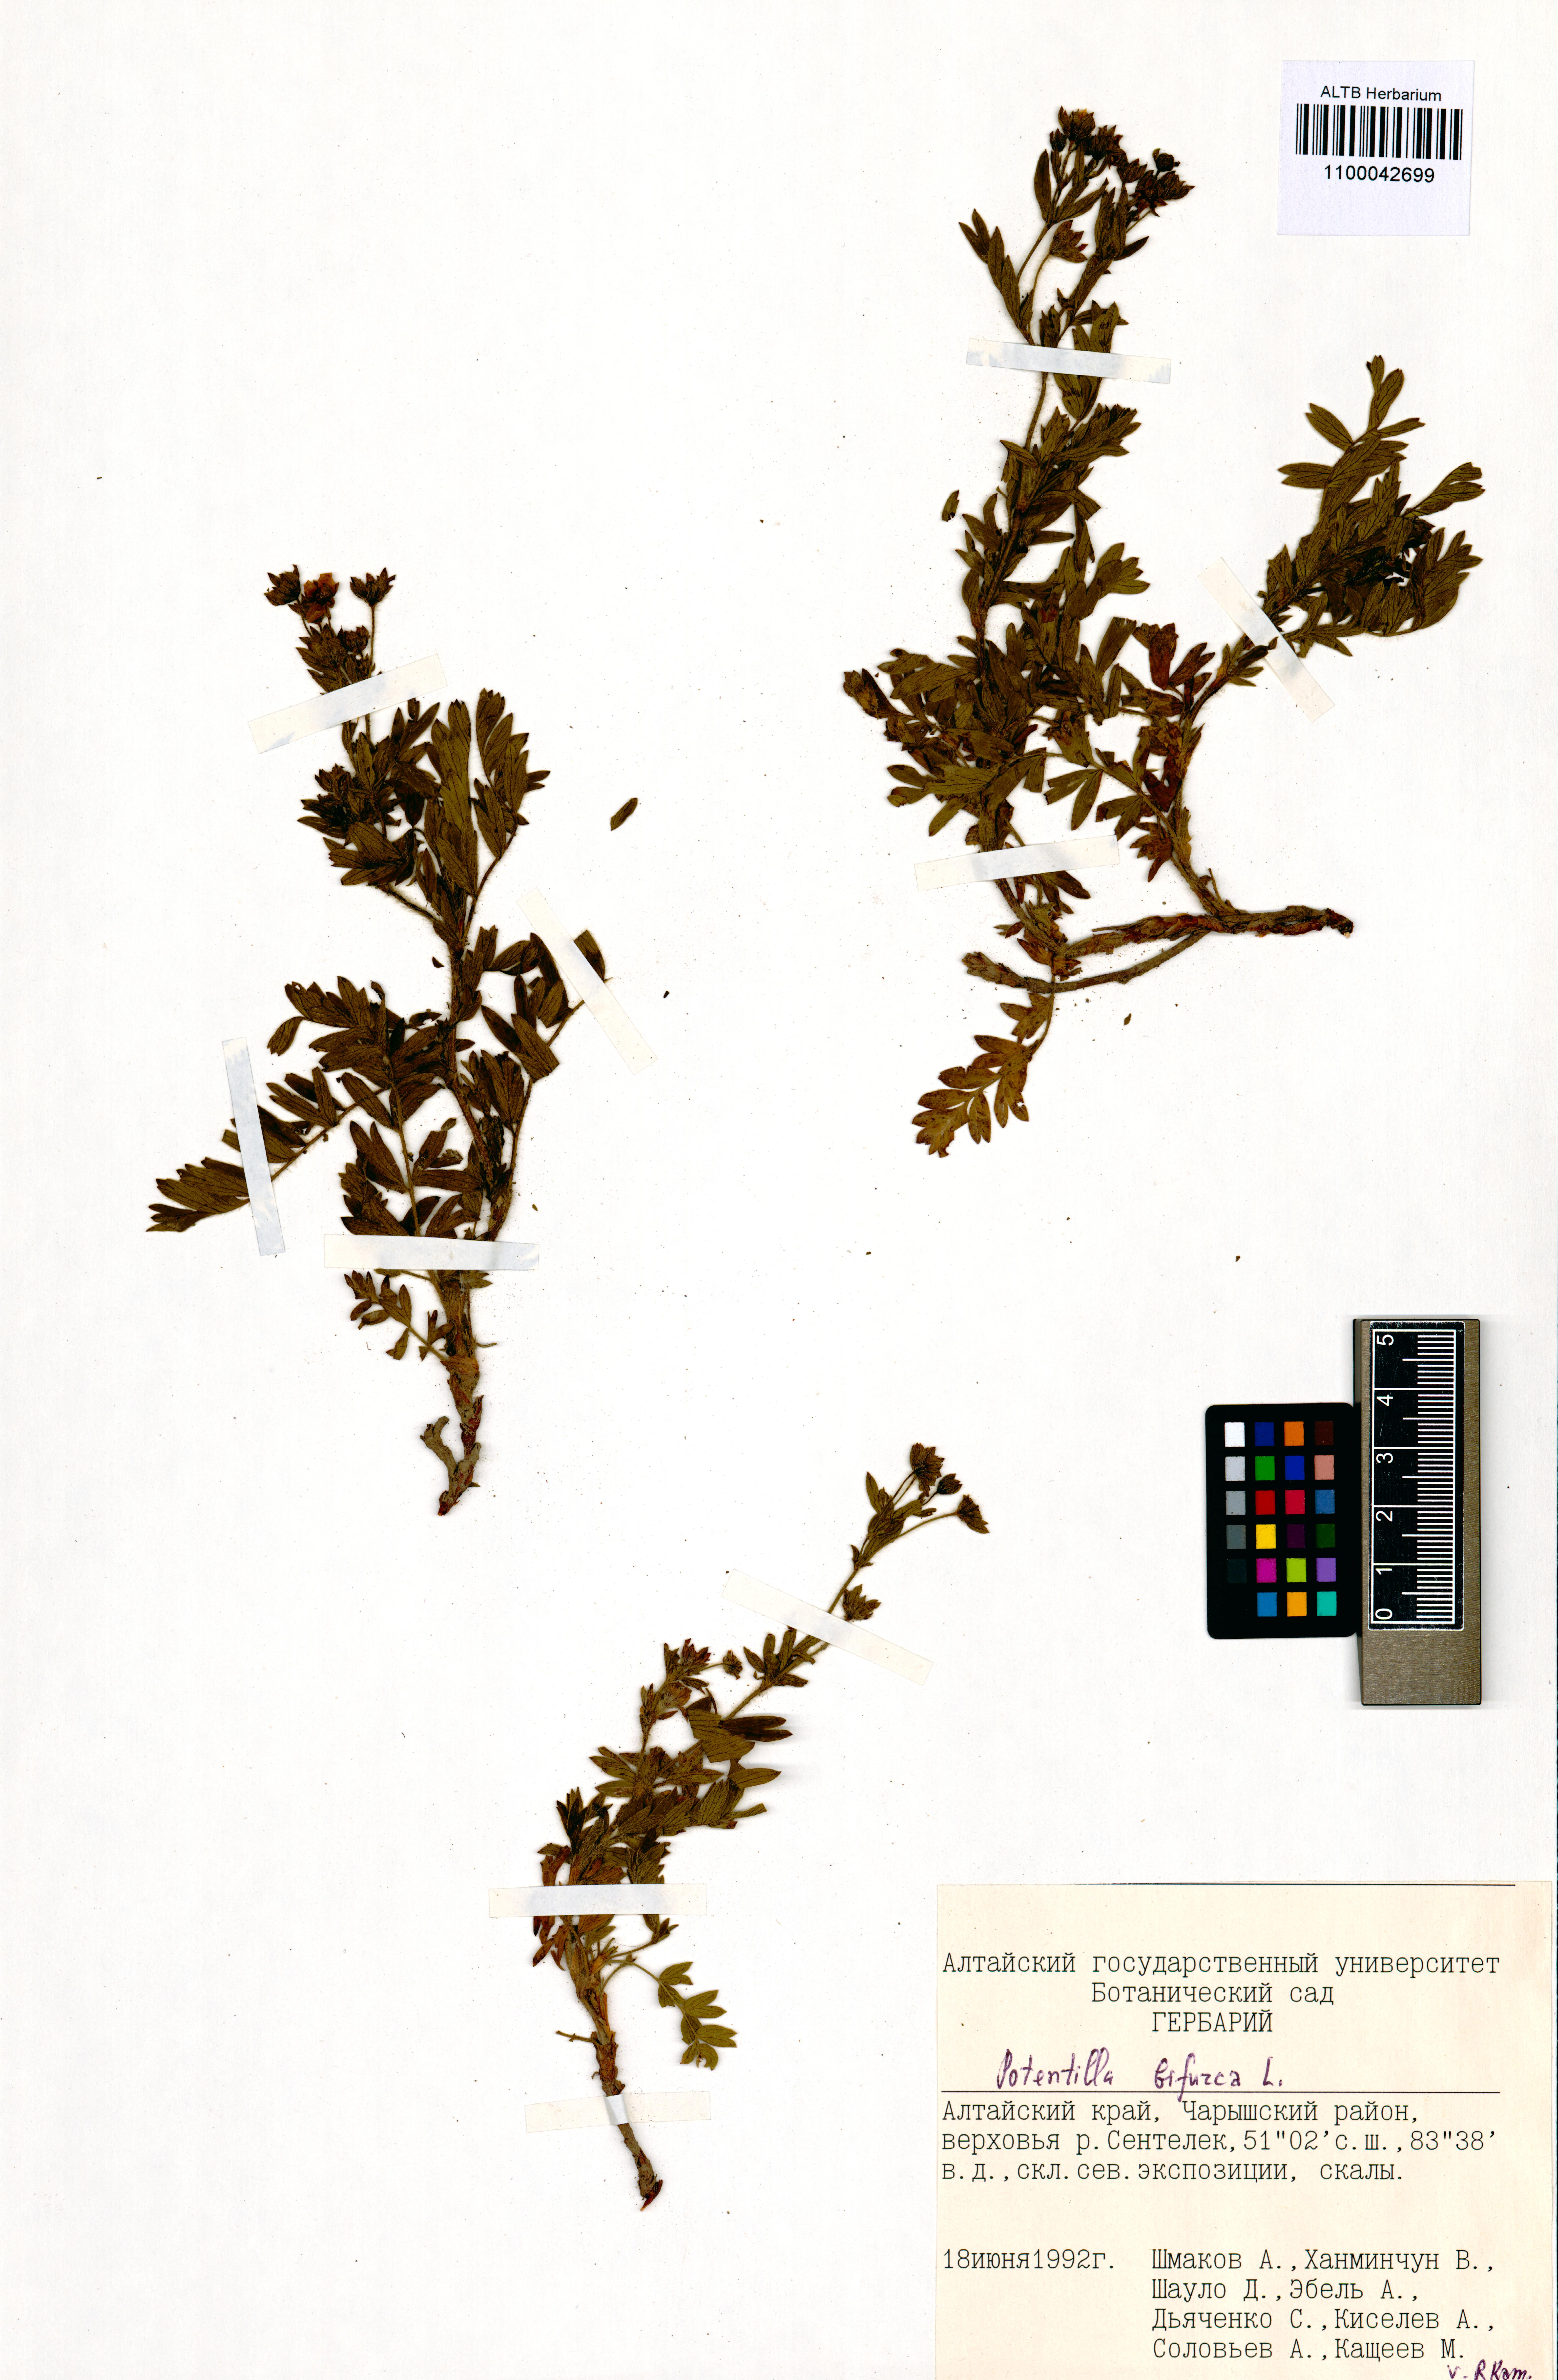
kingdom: Plantae
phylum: Tracheophyta
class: Magnoliopsida
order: Rosales
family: Rosaceae
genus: Sibbaldianthe
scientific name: Sibbaldianthe bifurca
